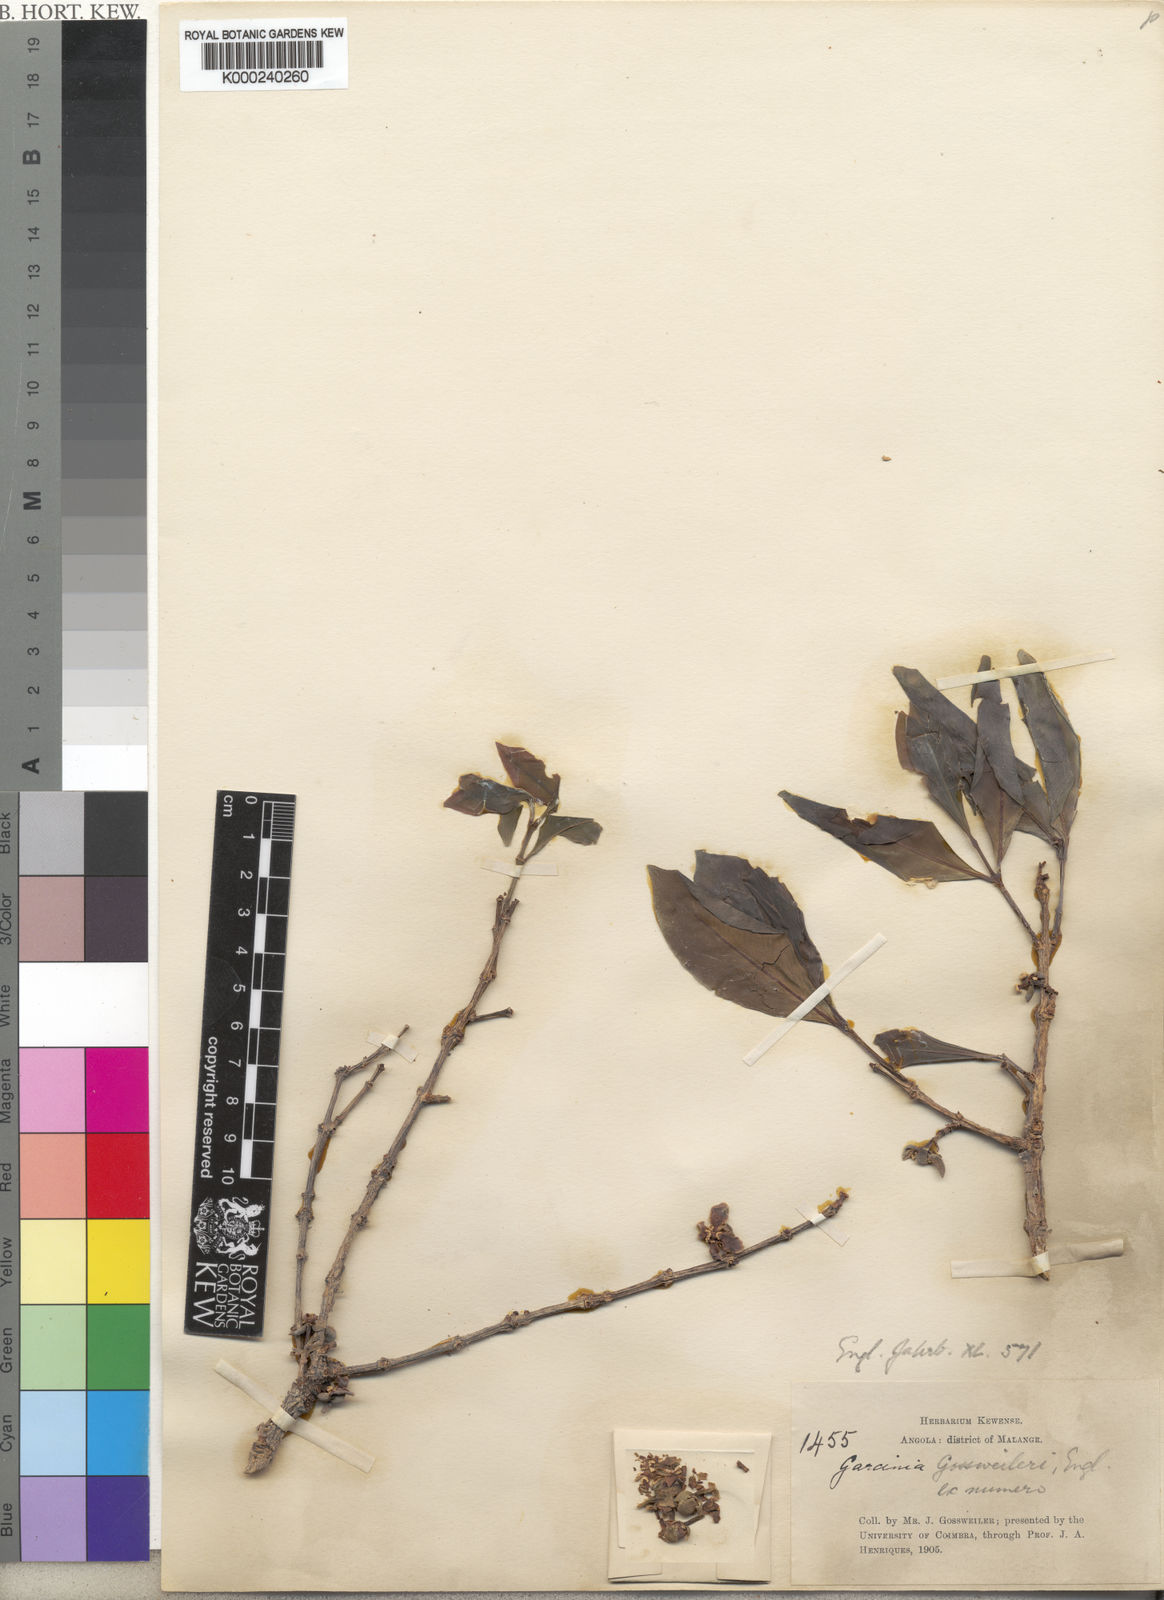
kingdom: Plantae
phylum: Tracheophyta
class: Magnoliopsida
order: Malpighiales
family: Clusiaceae
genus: Garcinia
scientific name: Garcinia huillensis
